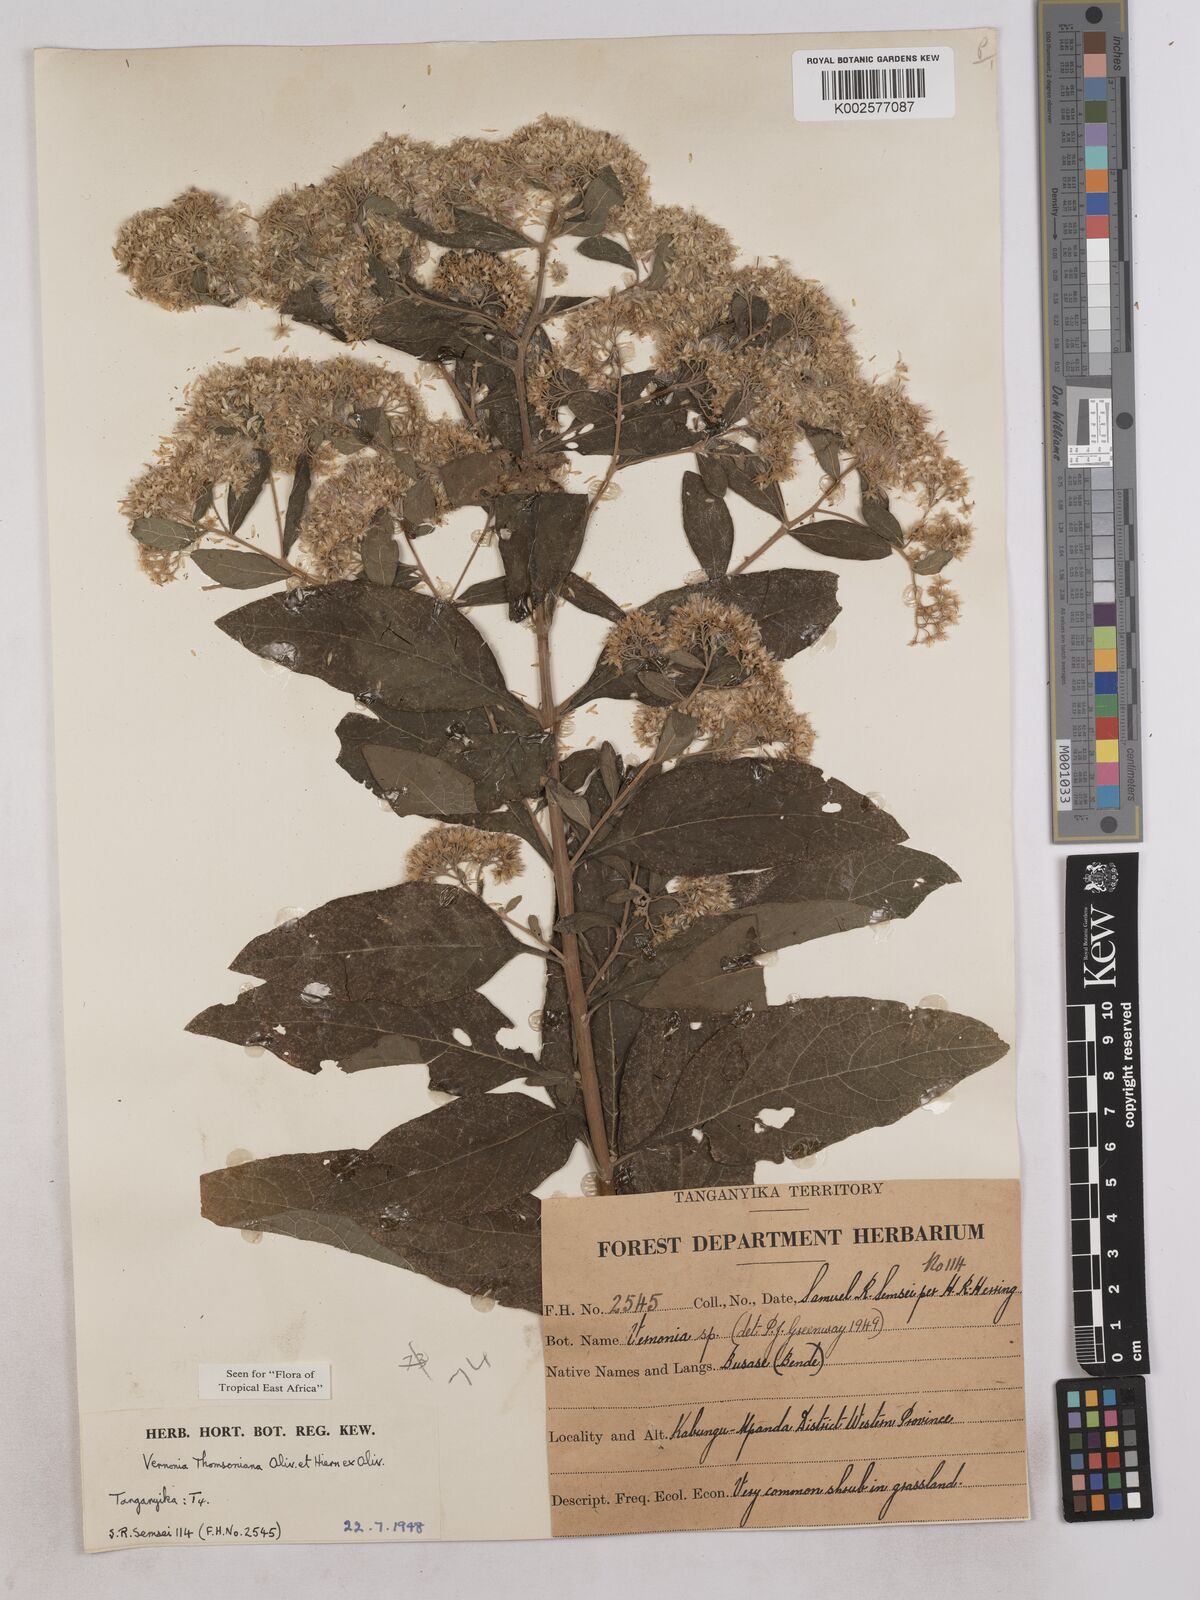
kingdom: Plantae
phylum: Tracheophyta
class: Magnoliopsida
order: Asterales
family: Asteraceae
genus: Gymnanthemum
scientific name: Gymnanthemum thomsonianum
